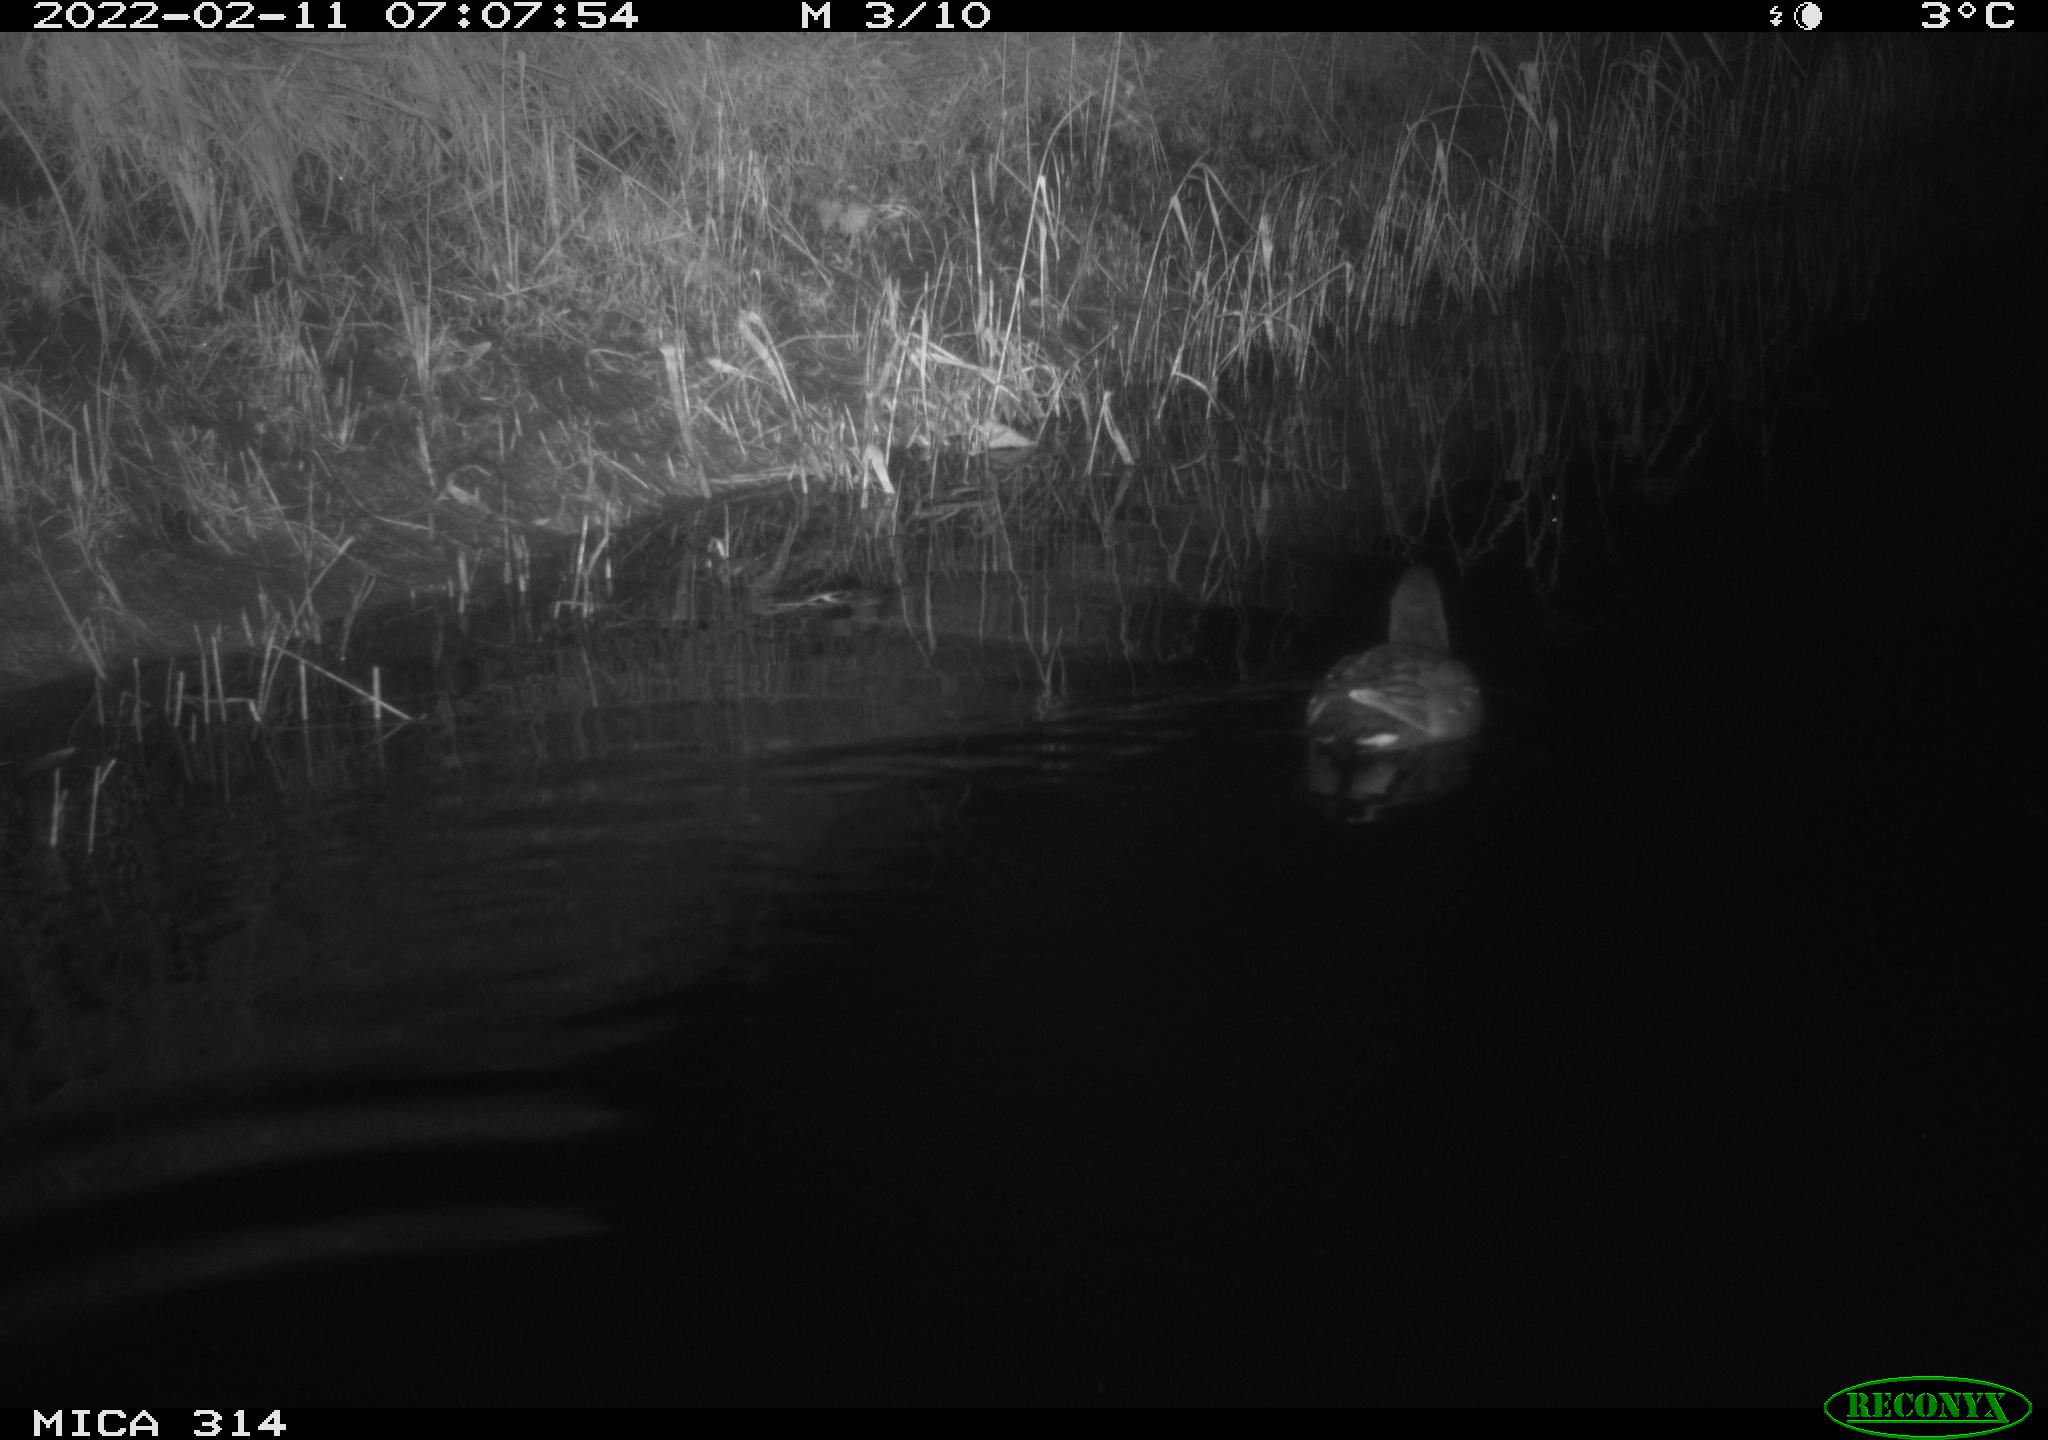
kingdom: Animalia
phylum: Chordata
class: Aves
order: Gruiformes
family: Rallidae
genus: Gallinula
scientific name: Gallinula chloropus
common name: Common moorhen
